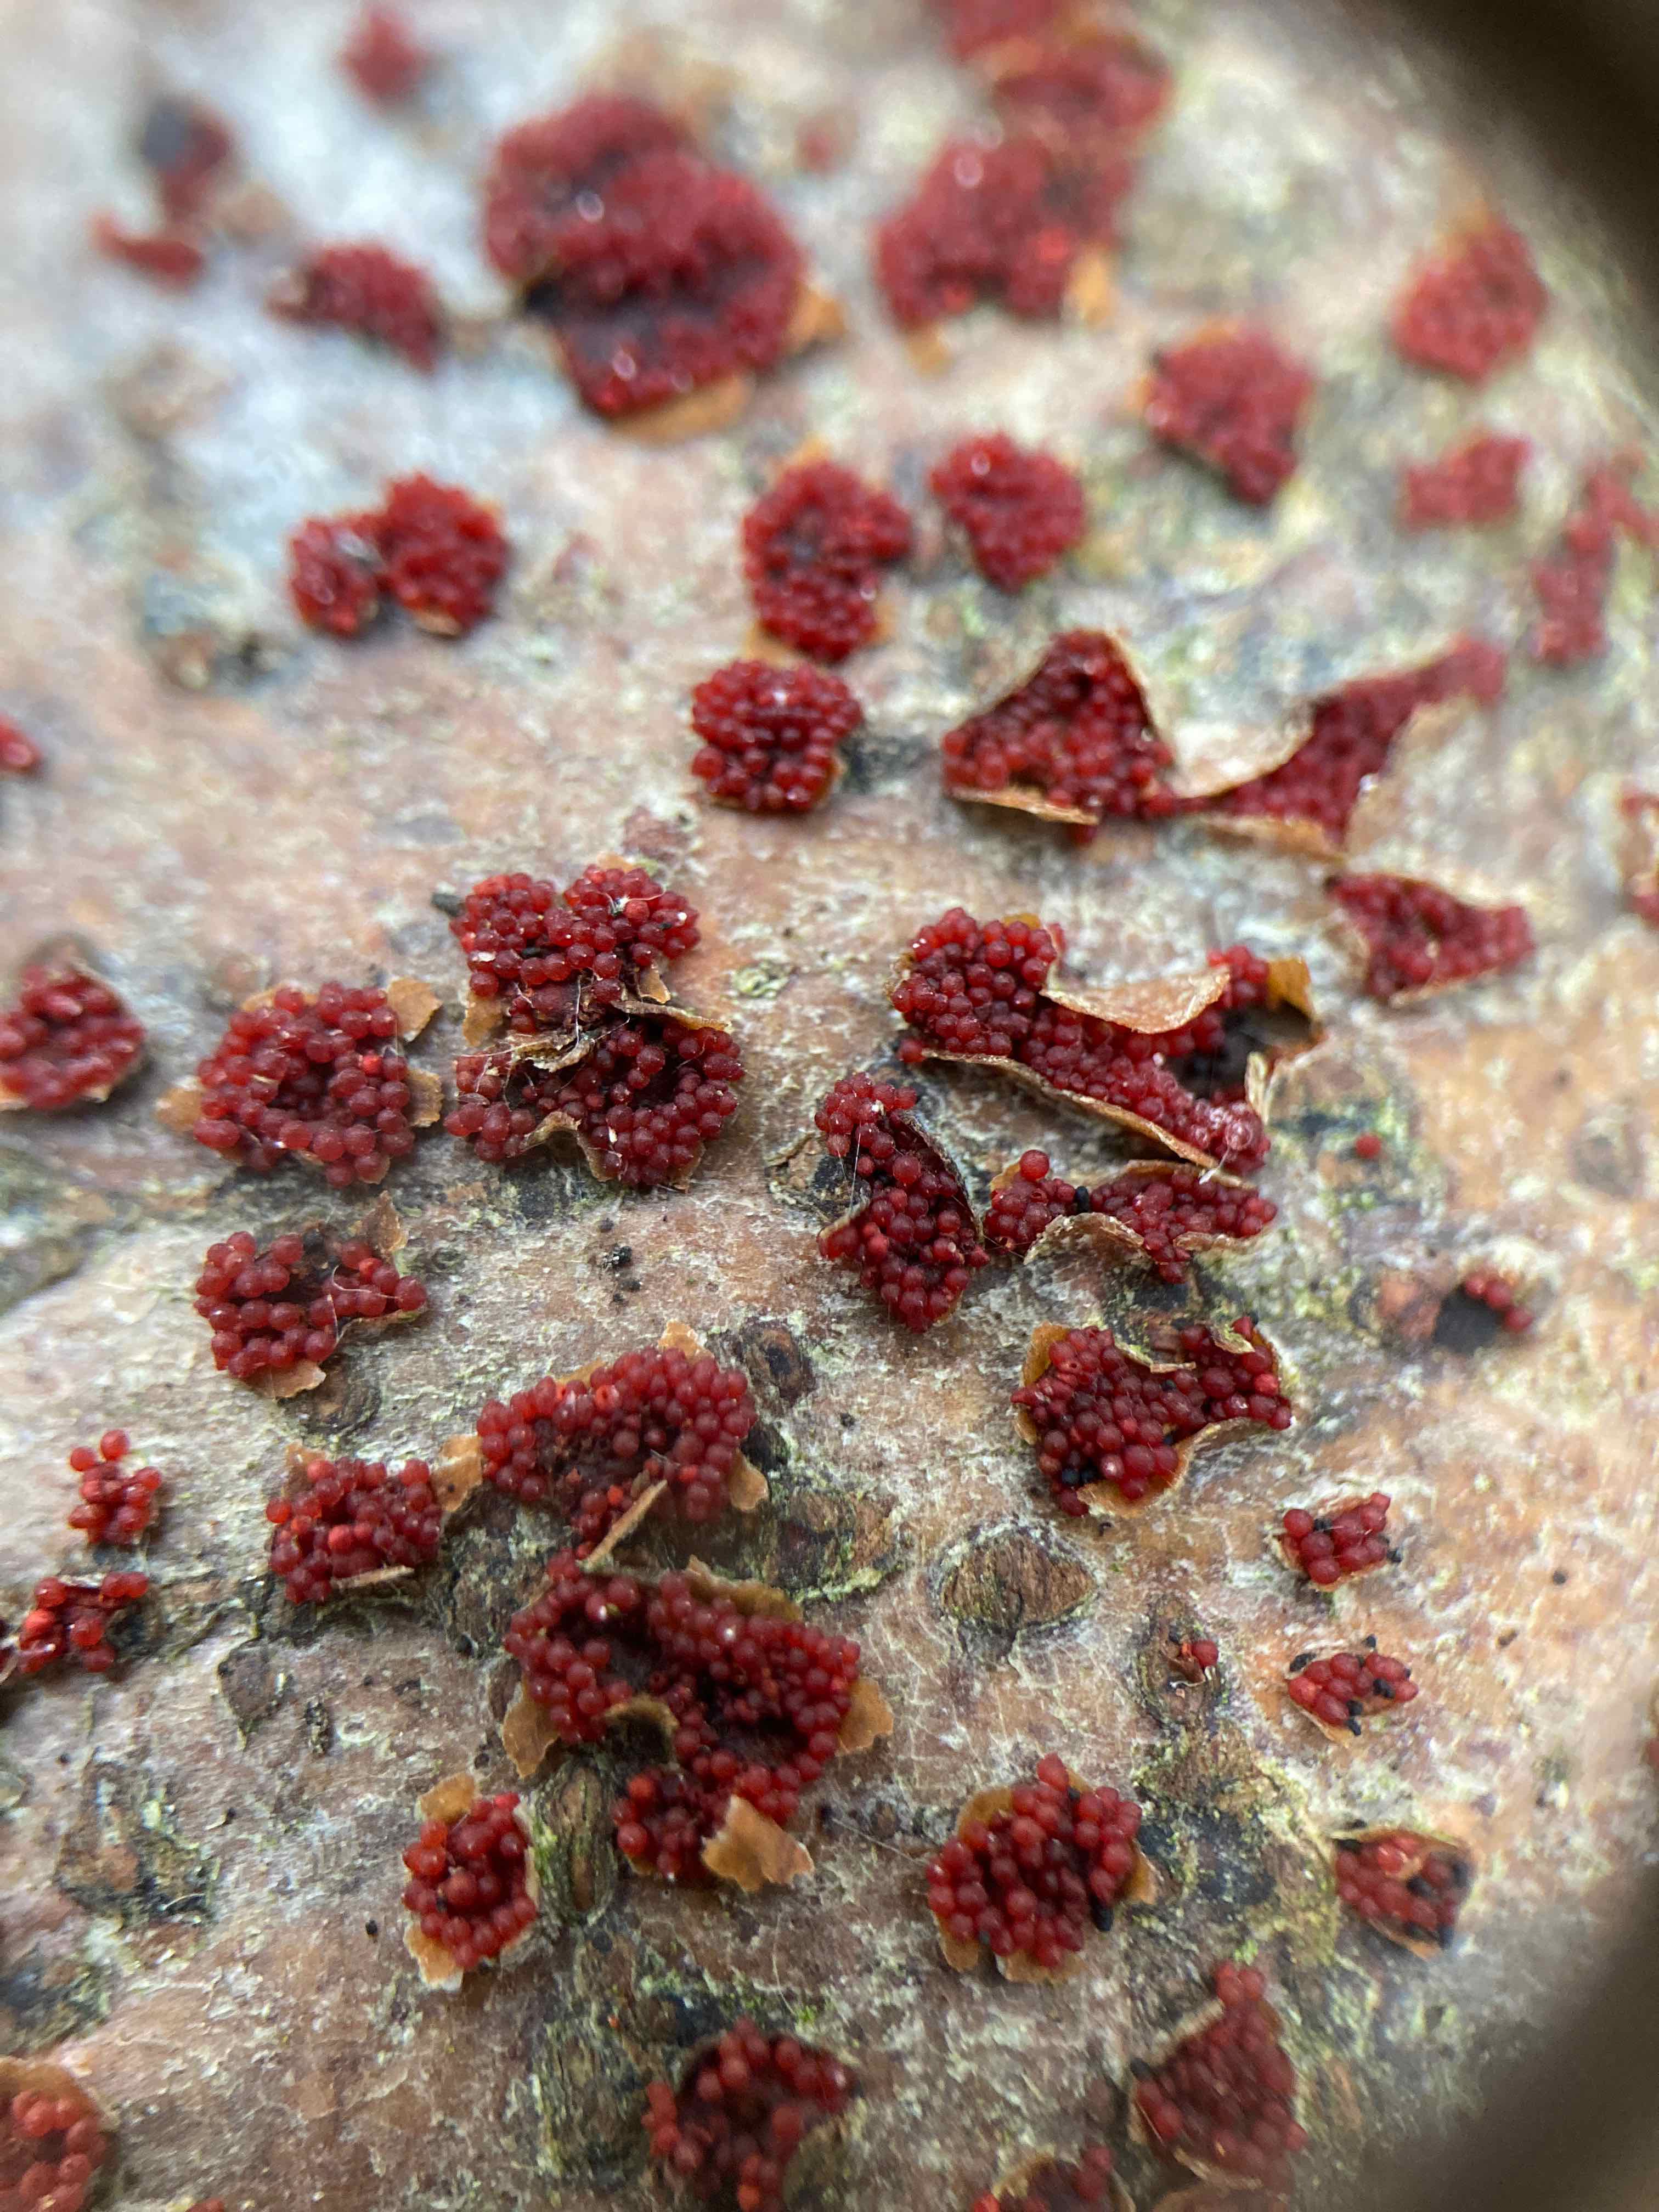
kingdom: Fungi
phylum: Ascomycota
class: Sordariomycetes
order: Hypocreales
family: Nectriaceae
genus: Neonectria
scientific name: Neonectria coccinea
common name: bøgebark-cinnobersvamp
